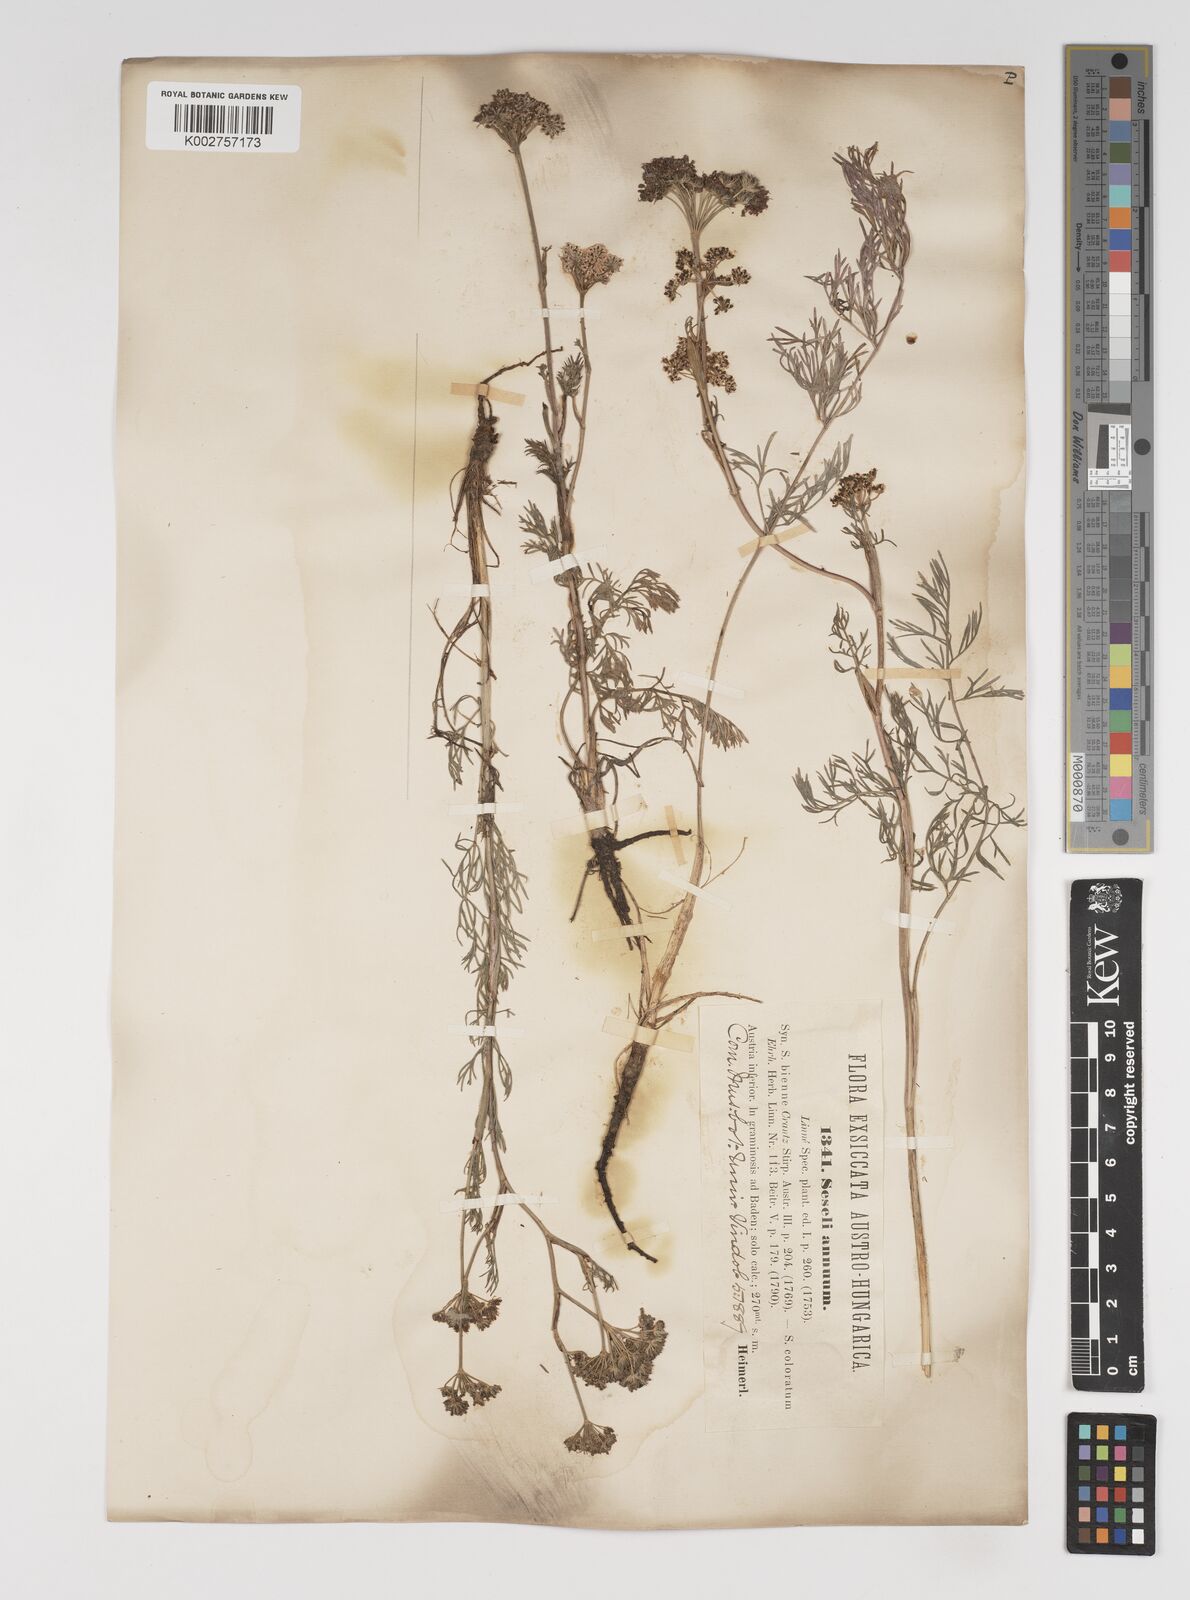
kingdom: Plantae
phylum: Tracheophyta
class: Magnoliopsida
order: Apiales
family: Apiaceae
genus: Seseli
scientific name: Seseli annuum
